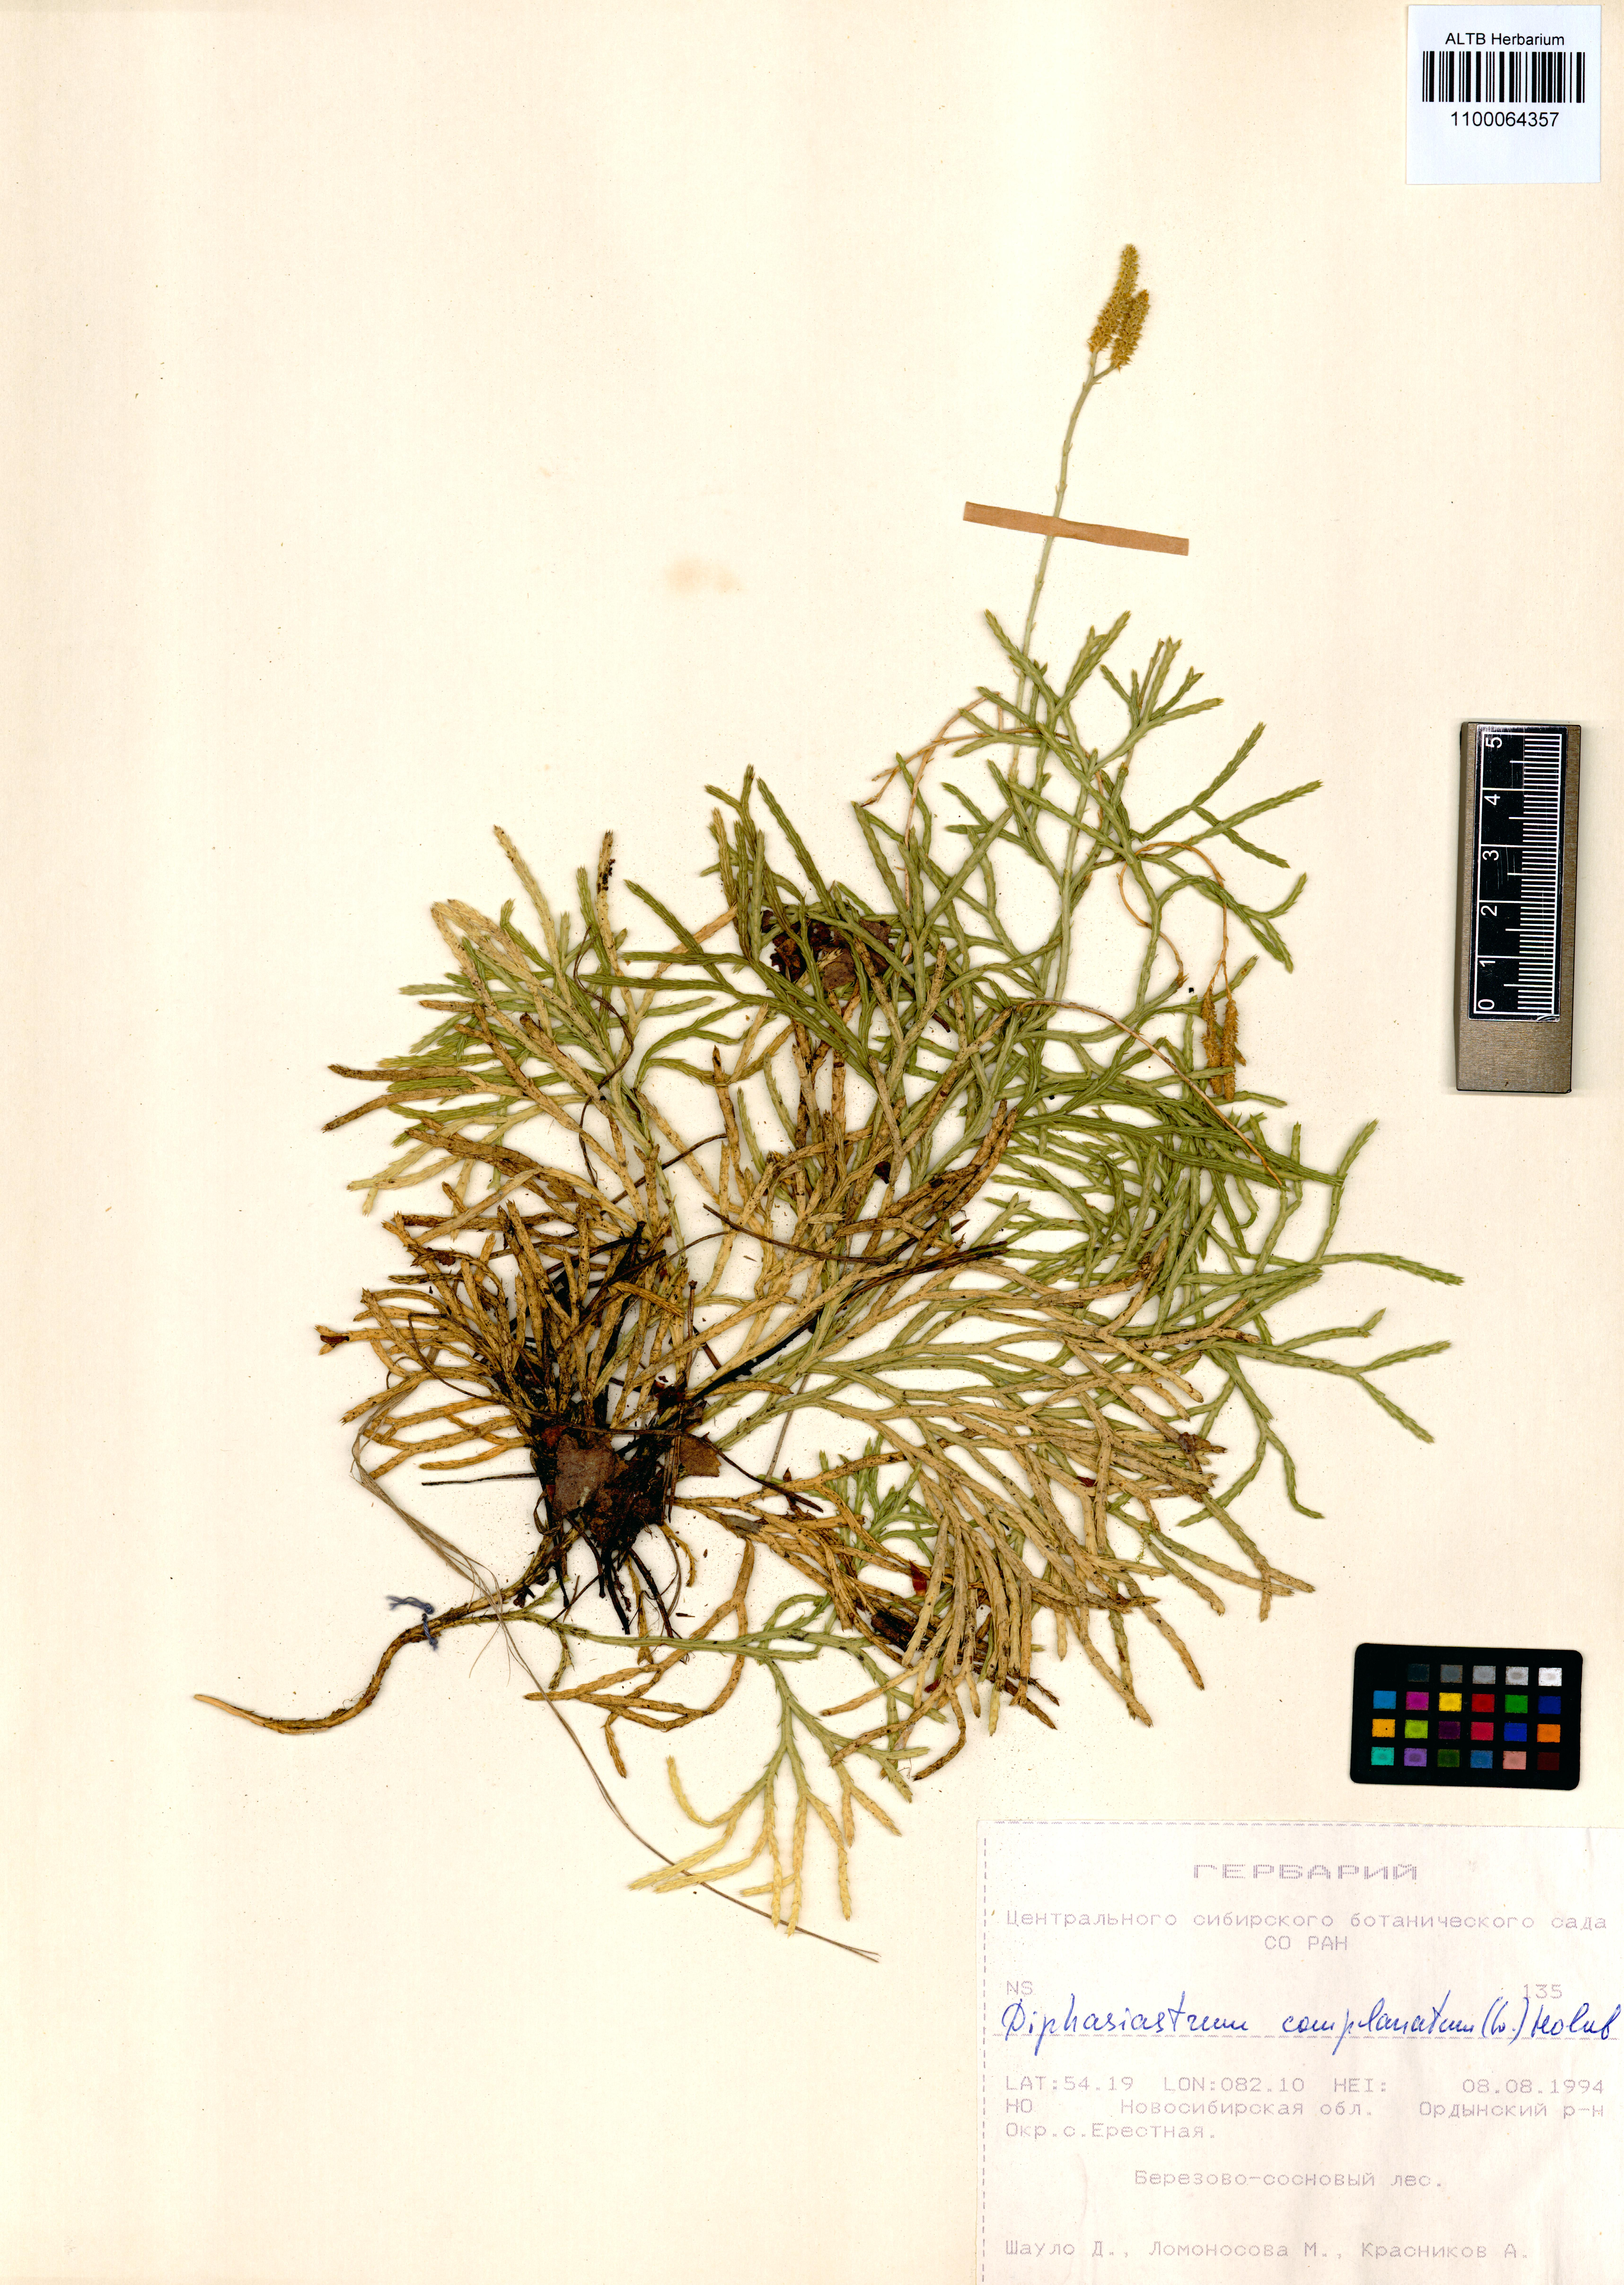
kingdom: Plantae
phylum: Tracheophyta
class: Lycopodiopsida
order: Lycopodiales
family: Lycopodiaceae
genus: Diphasiastrum
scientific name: Diphasiastrum complanatum
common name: Northern running-pine
